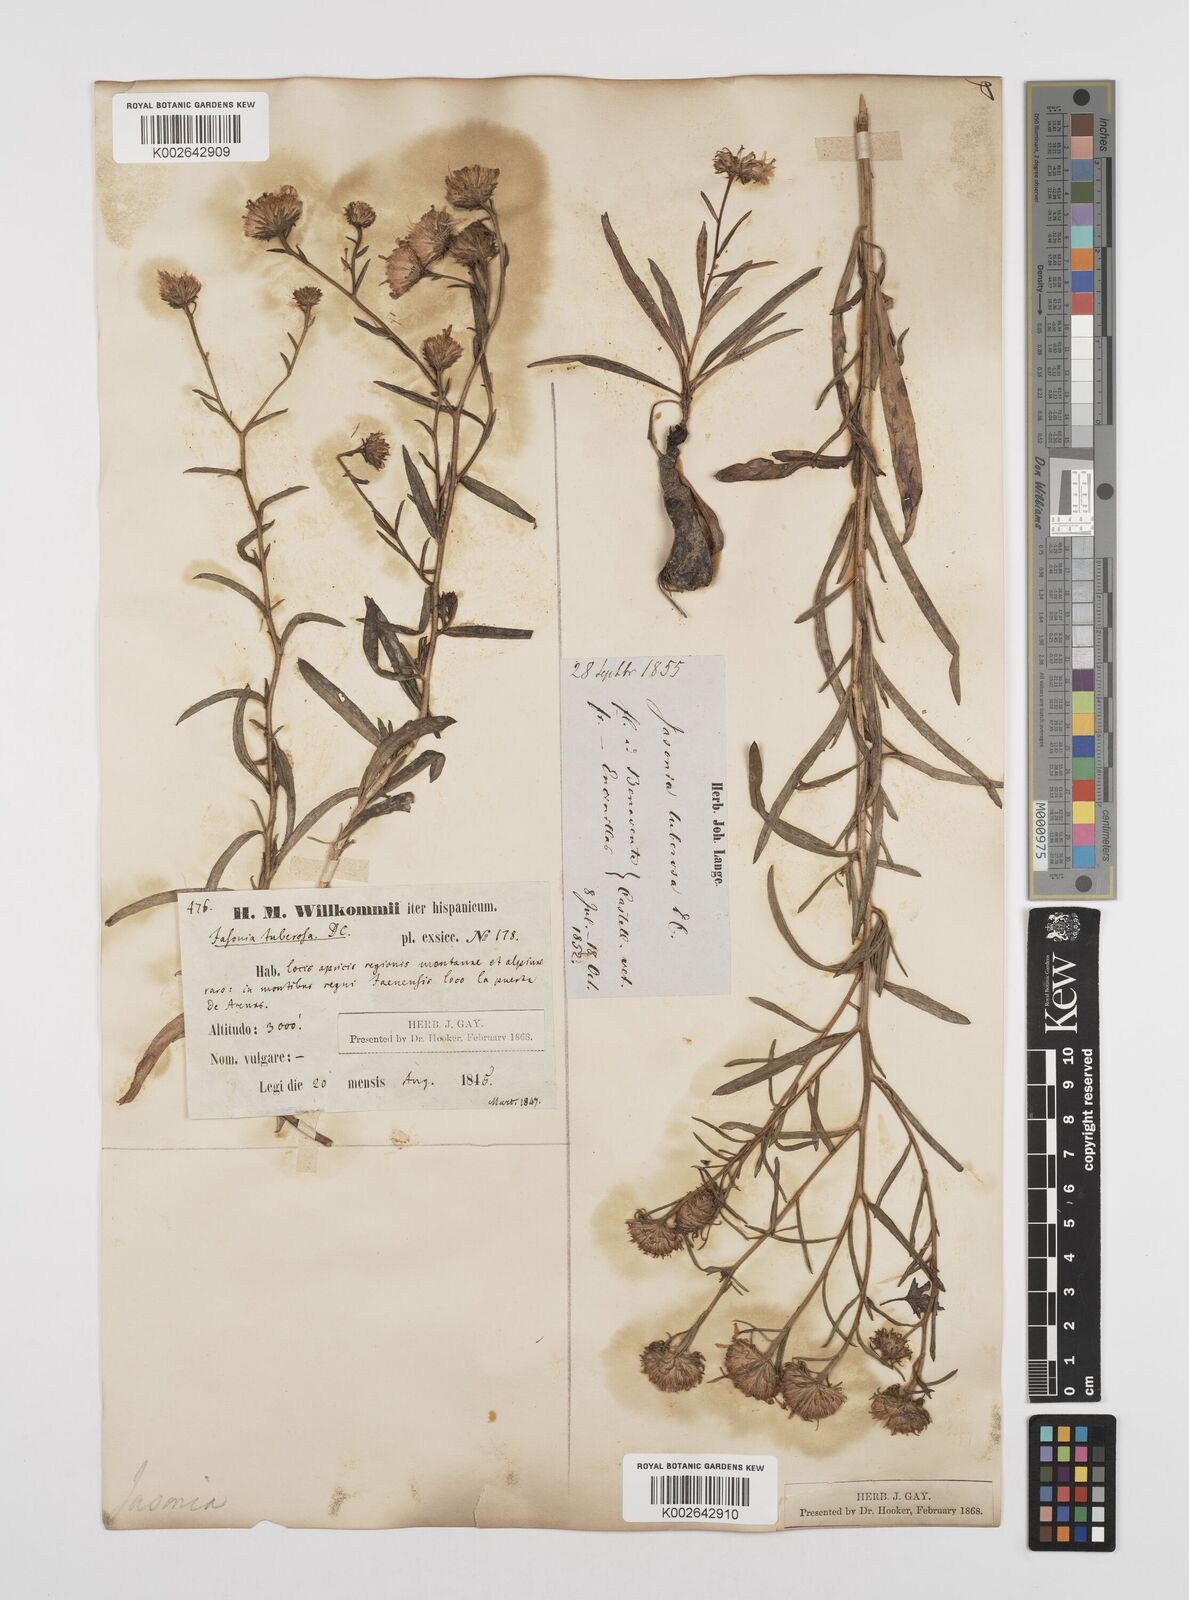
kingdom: Plantae
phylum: Tracheophyta
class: Magnoliopsida
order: Asterales
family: Asteraceae
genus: Jasonia
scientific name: Jasonia tuberosa
